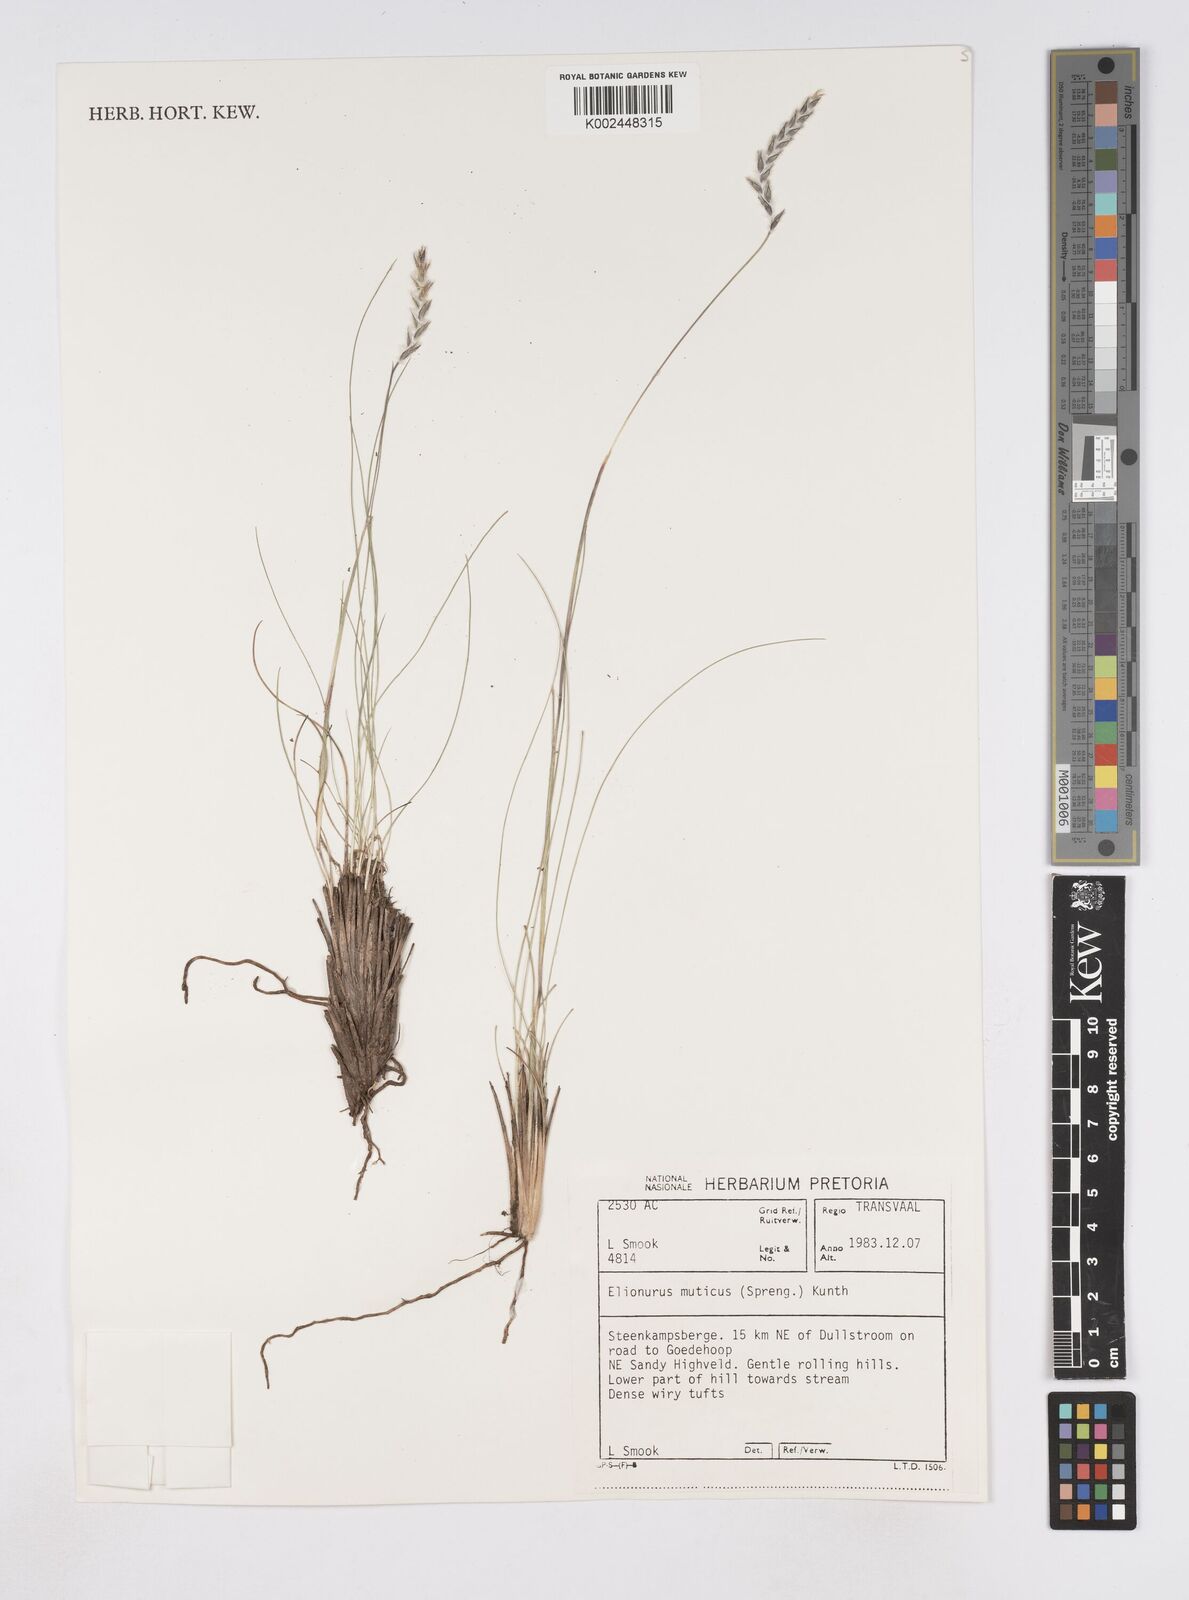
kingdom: Plantae
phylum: Tracheophyta
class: Liliopsida
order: Poales
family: Poaceae
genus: Elionurus
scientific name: Elionurus muticus
